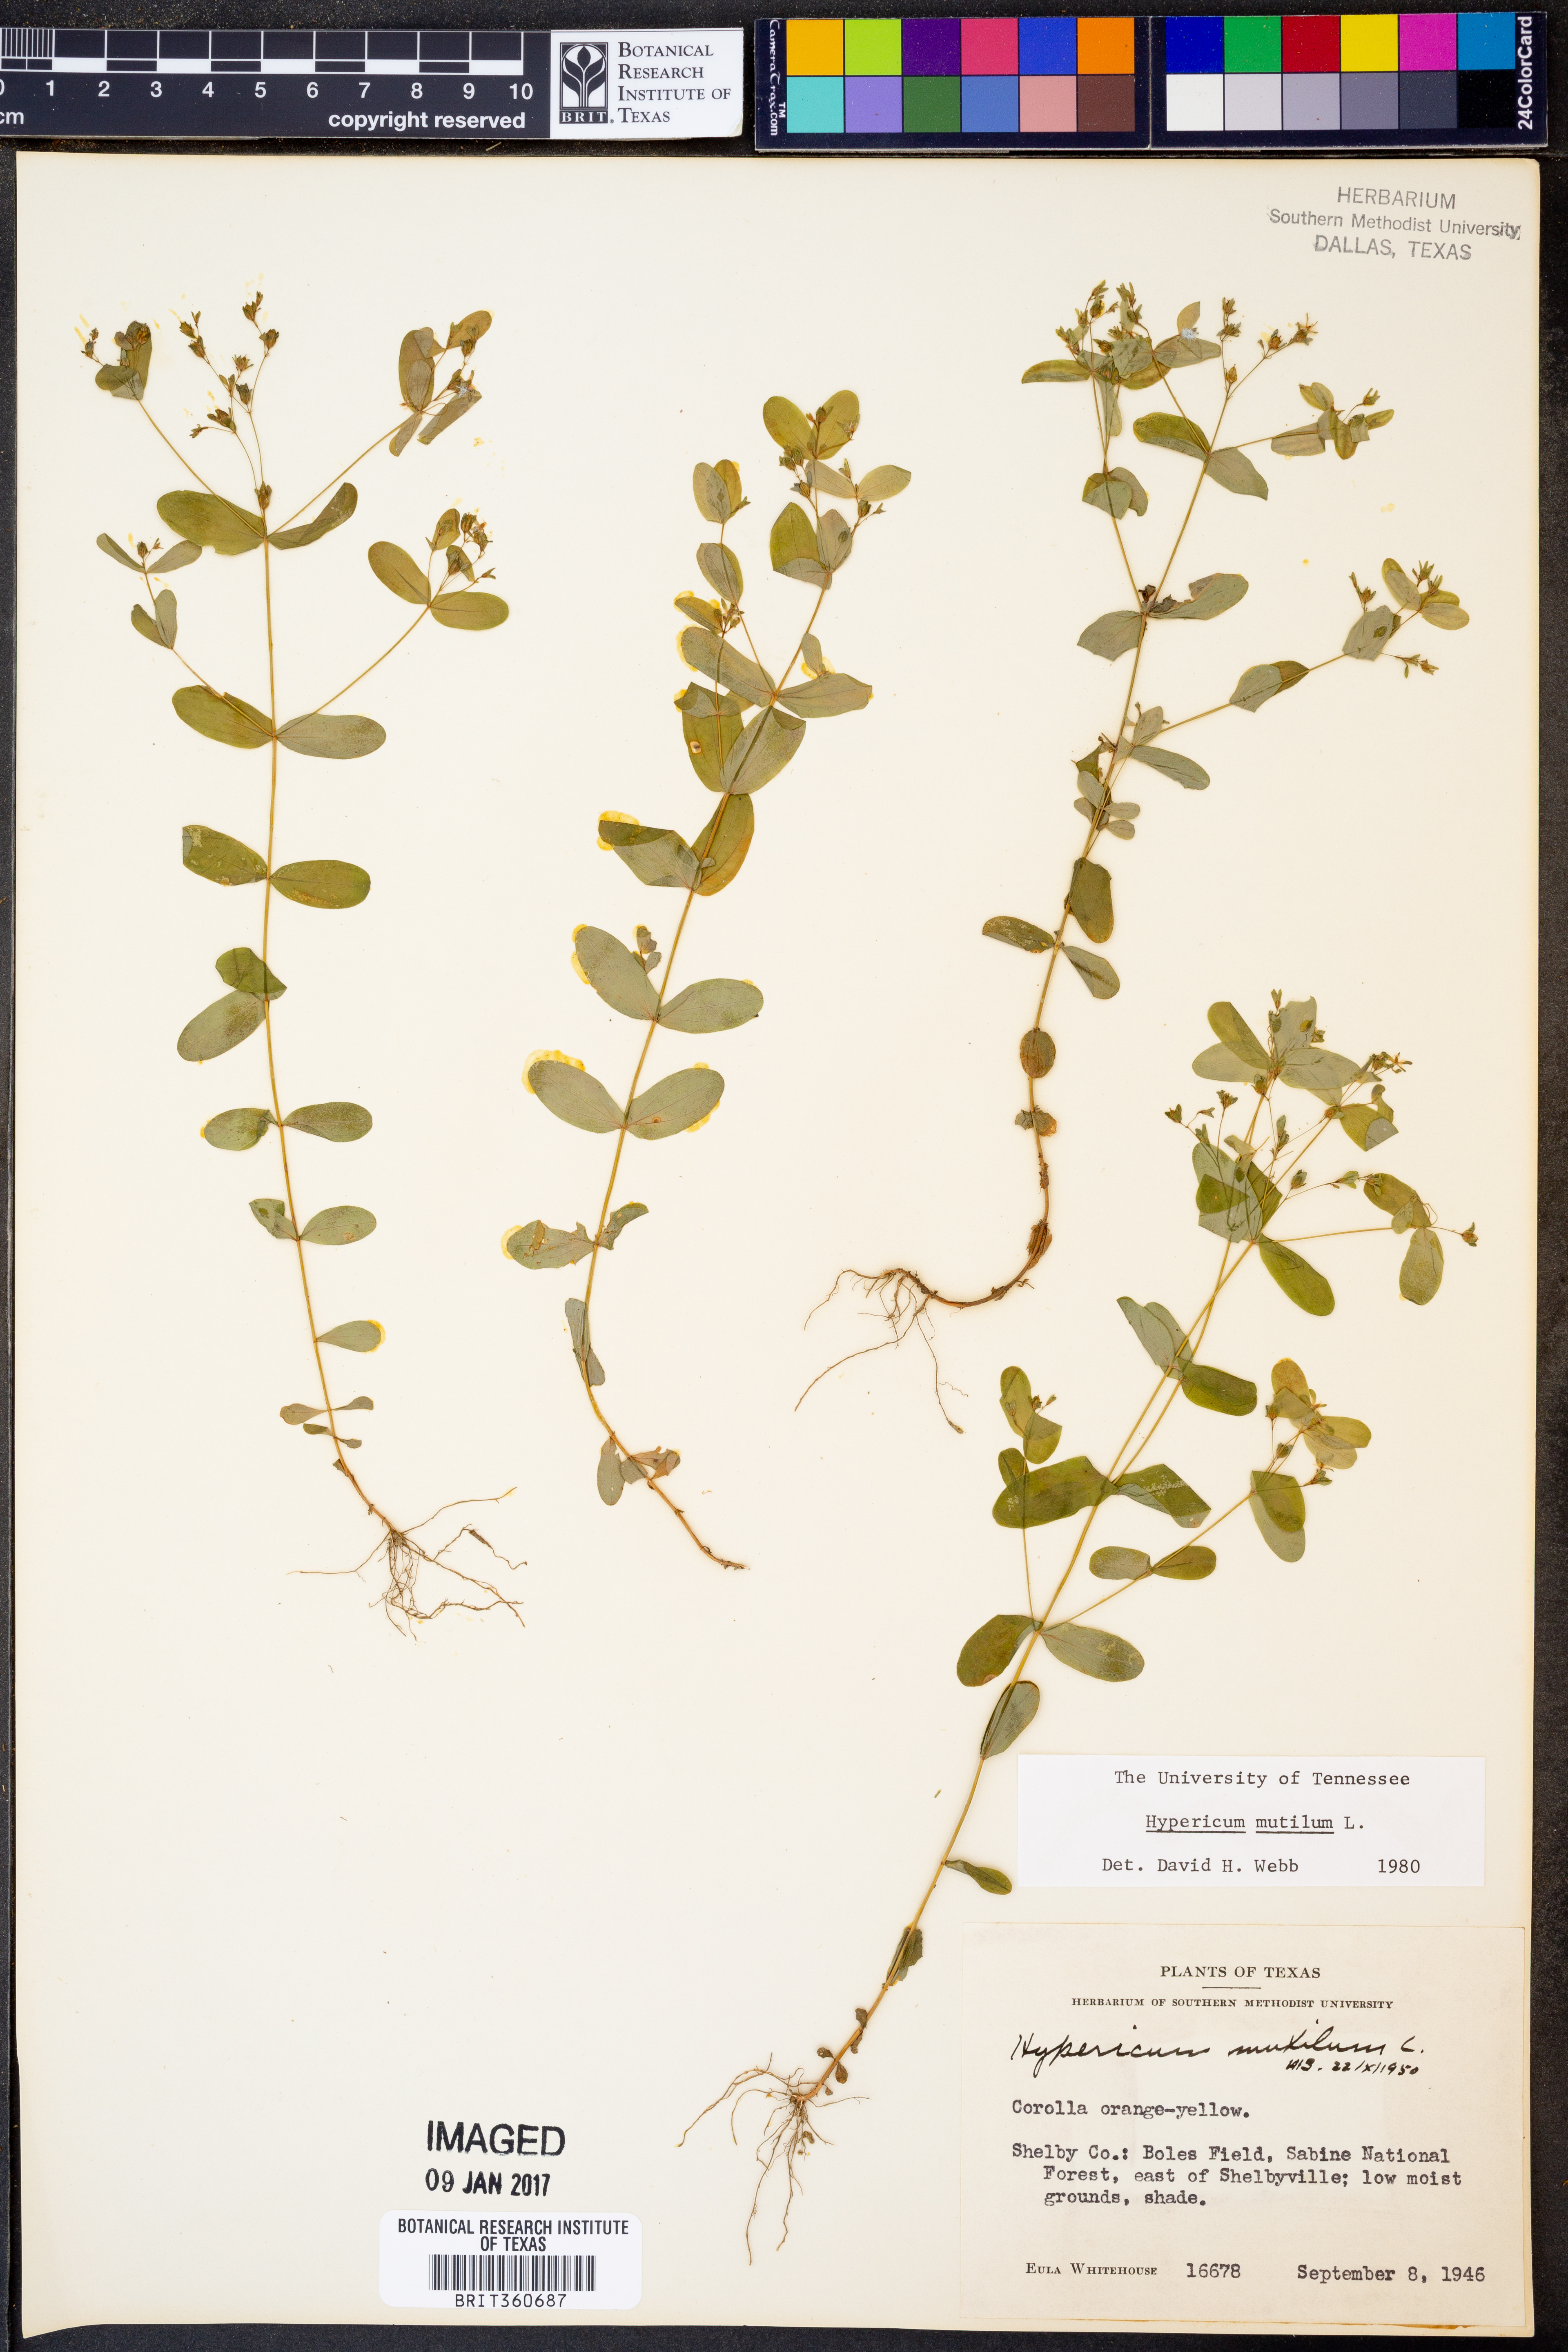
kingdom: Plantae
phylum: Tracheophyta
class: Magnoliopsida
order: Malpighiales
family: Hypericaceae
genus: Hypericum
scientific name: Hypericum mutilum
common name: Dwarf st. john's-wort
